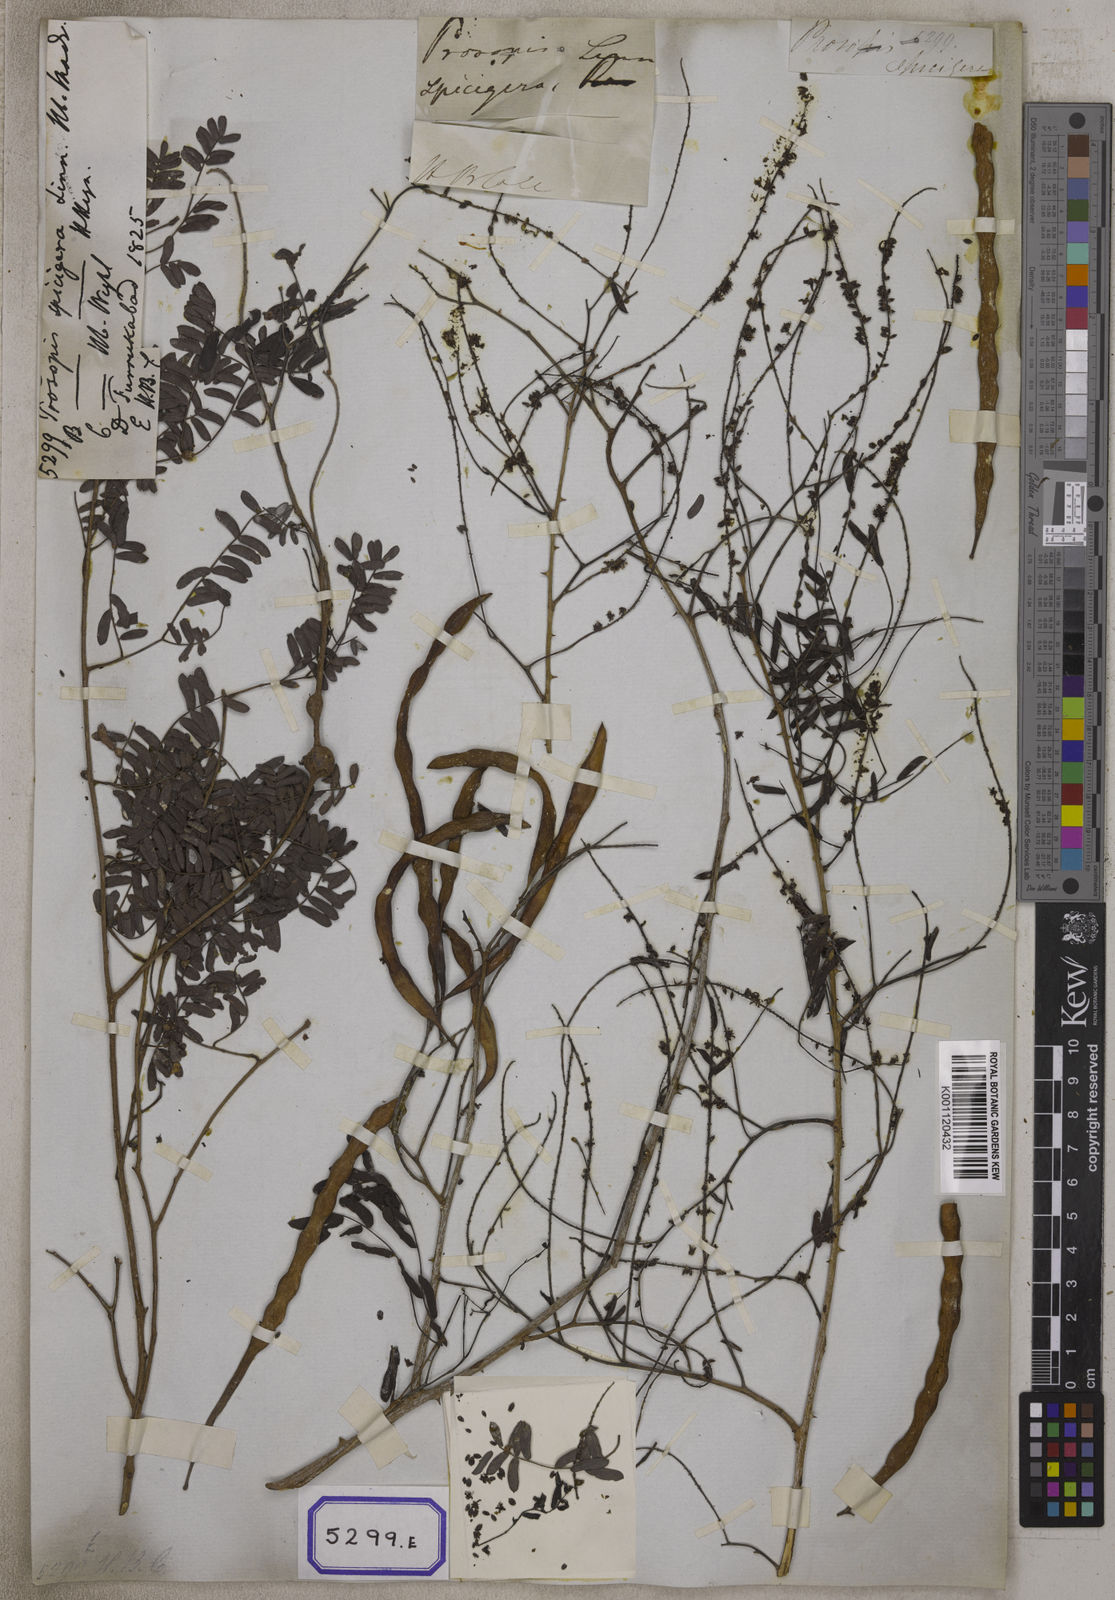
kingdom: Plantae
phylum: Tracheophyta
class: Magnoliopsida
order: Fabales
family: Fabaceae
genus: Prosopis
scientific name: Prosopis cineraria
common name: Jandi
